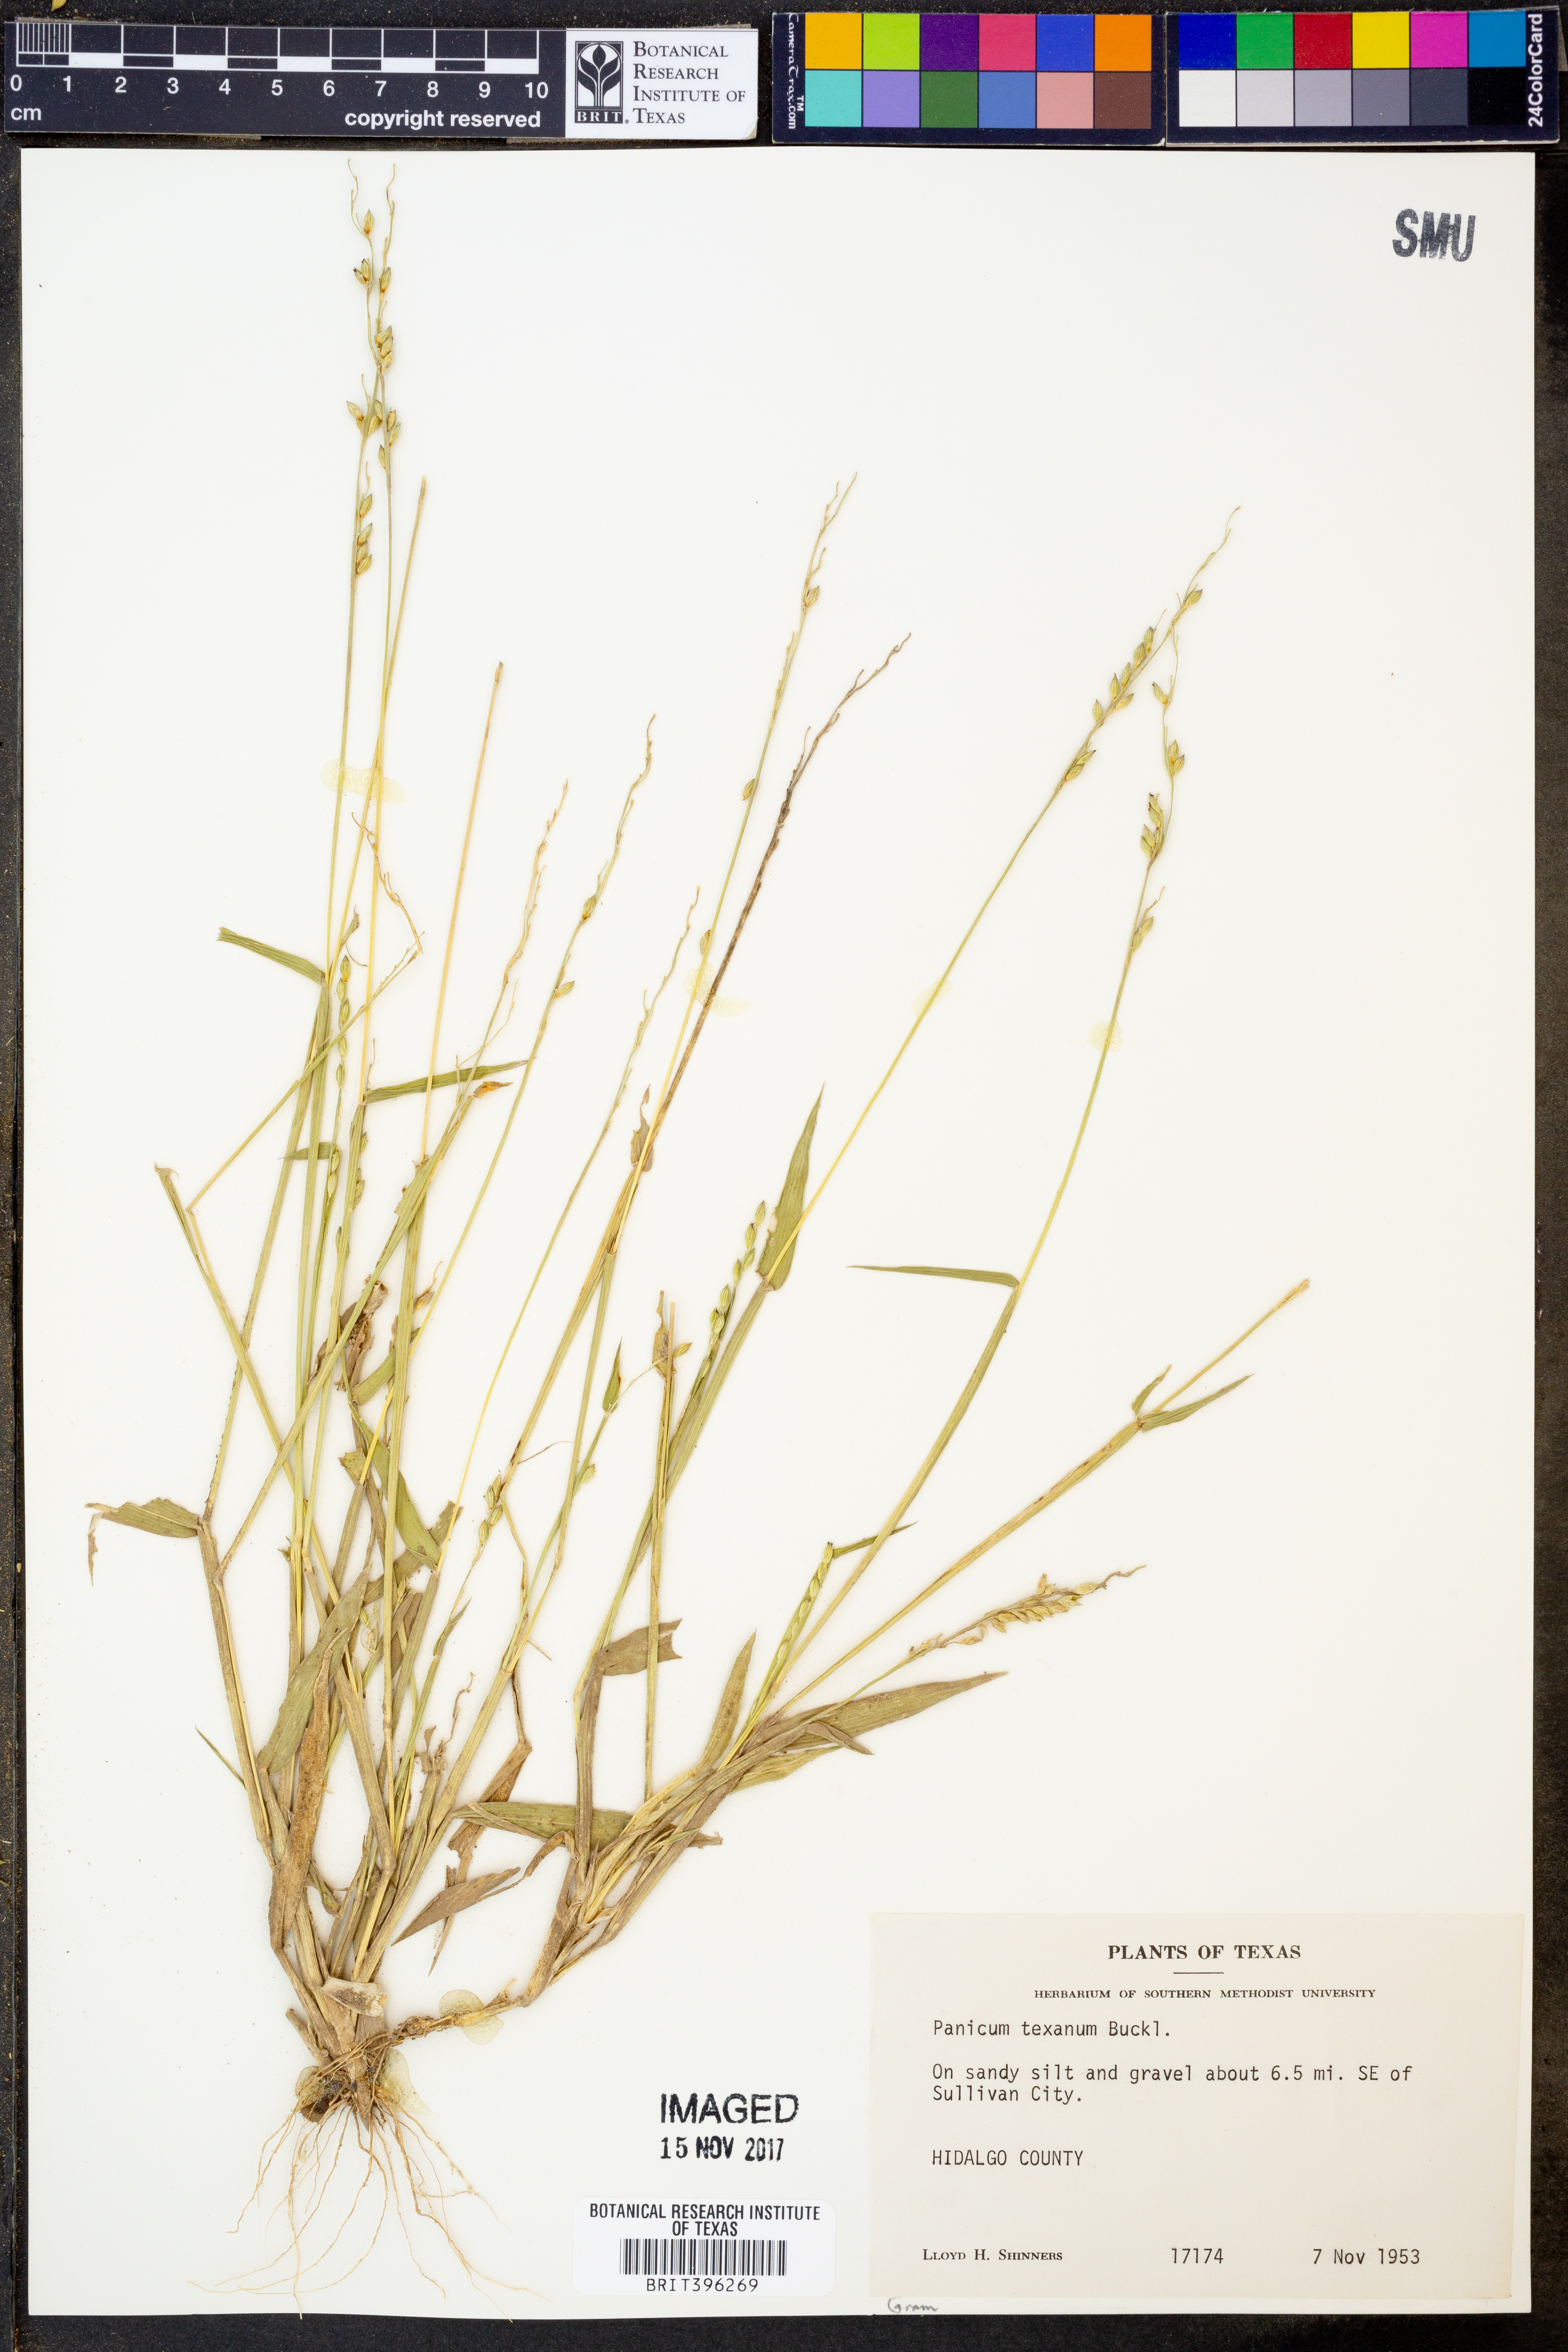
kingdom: Plantae
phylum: Tracheophyta
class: Liliopsida
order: Poales
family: Poaceae
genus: Urochloa
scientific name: Urochloa texana
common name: Texas millet
